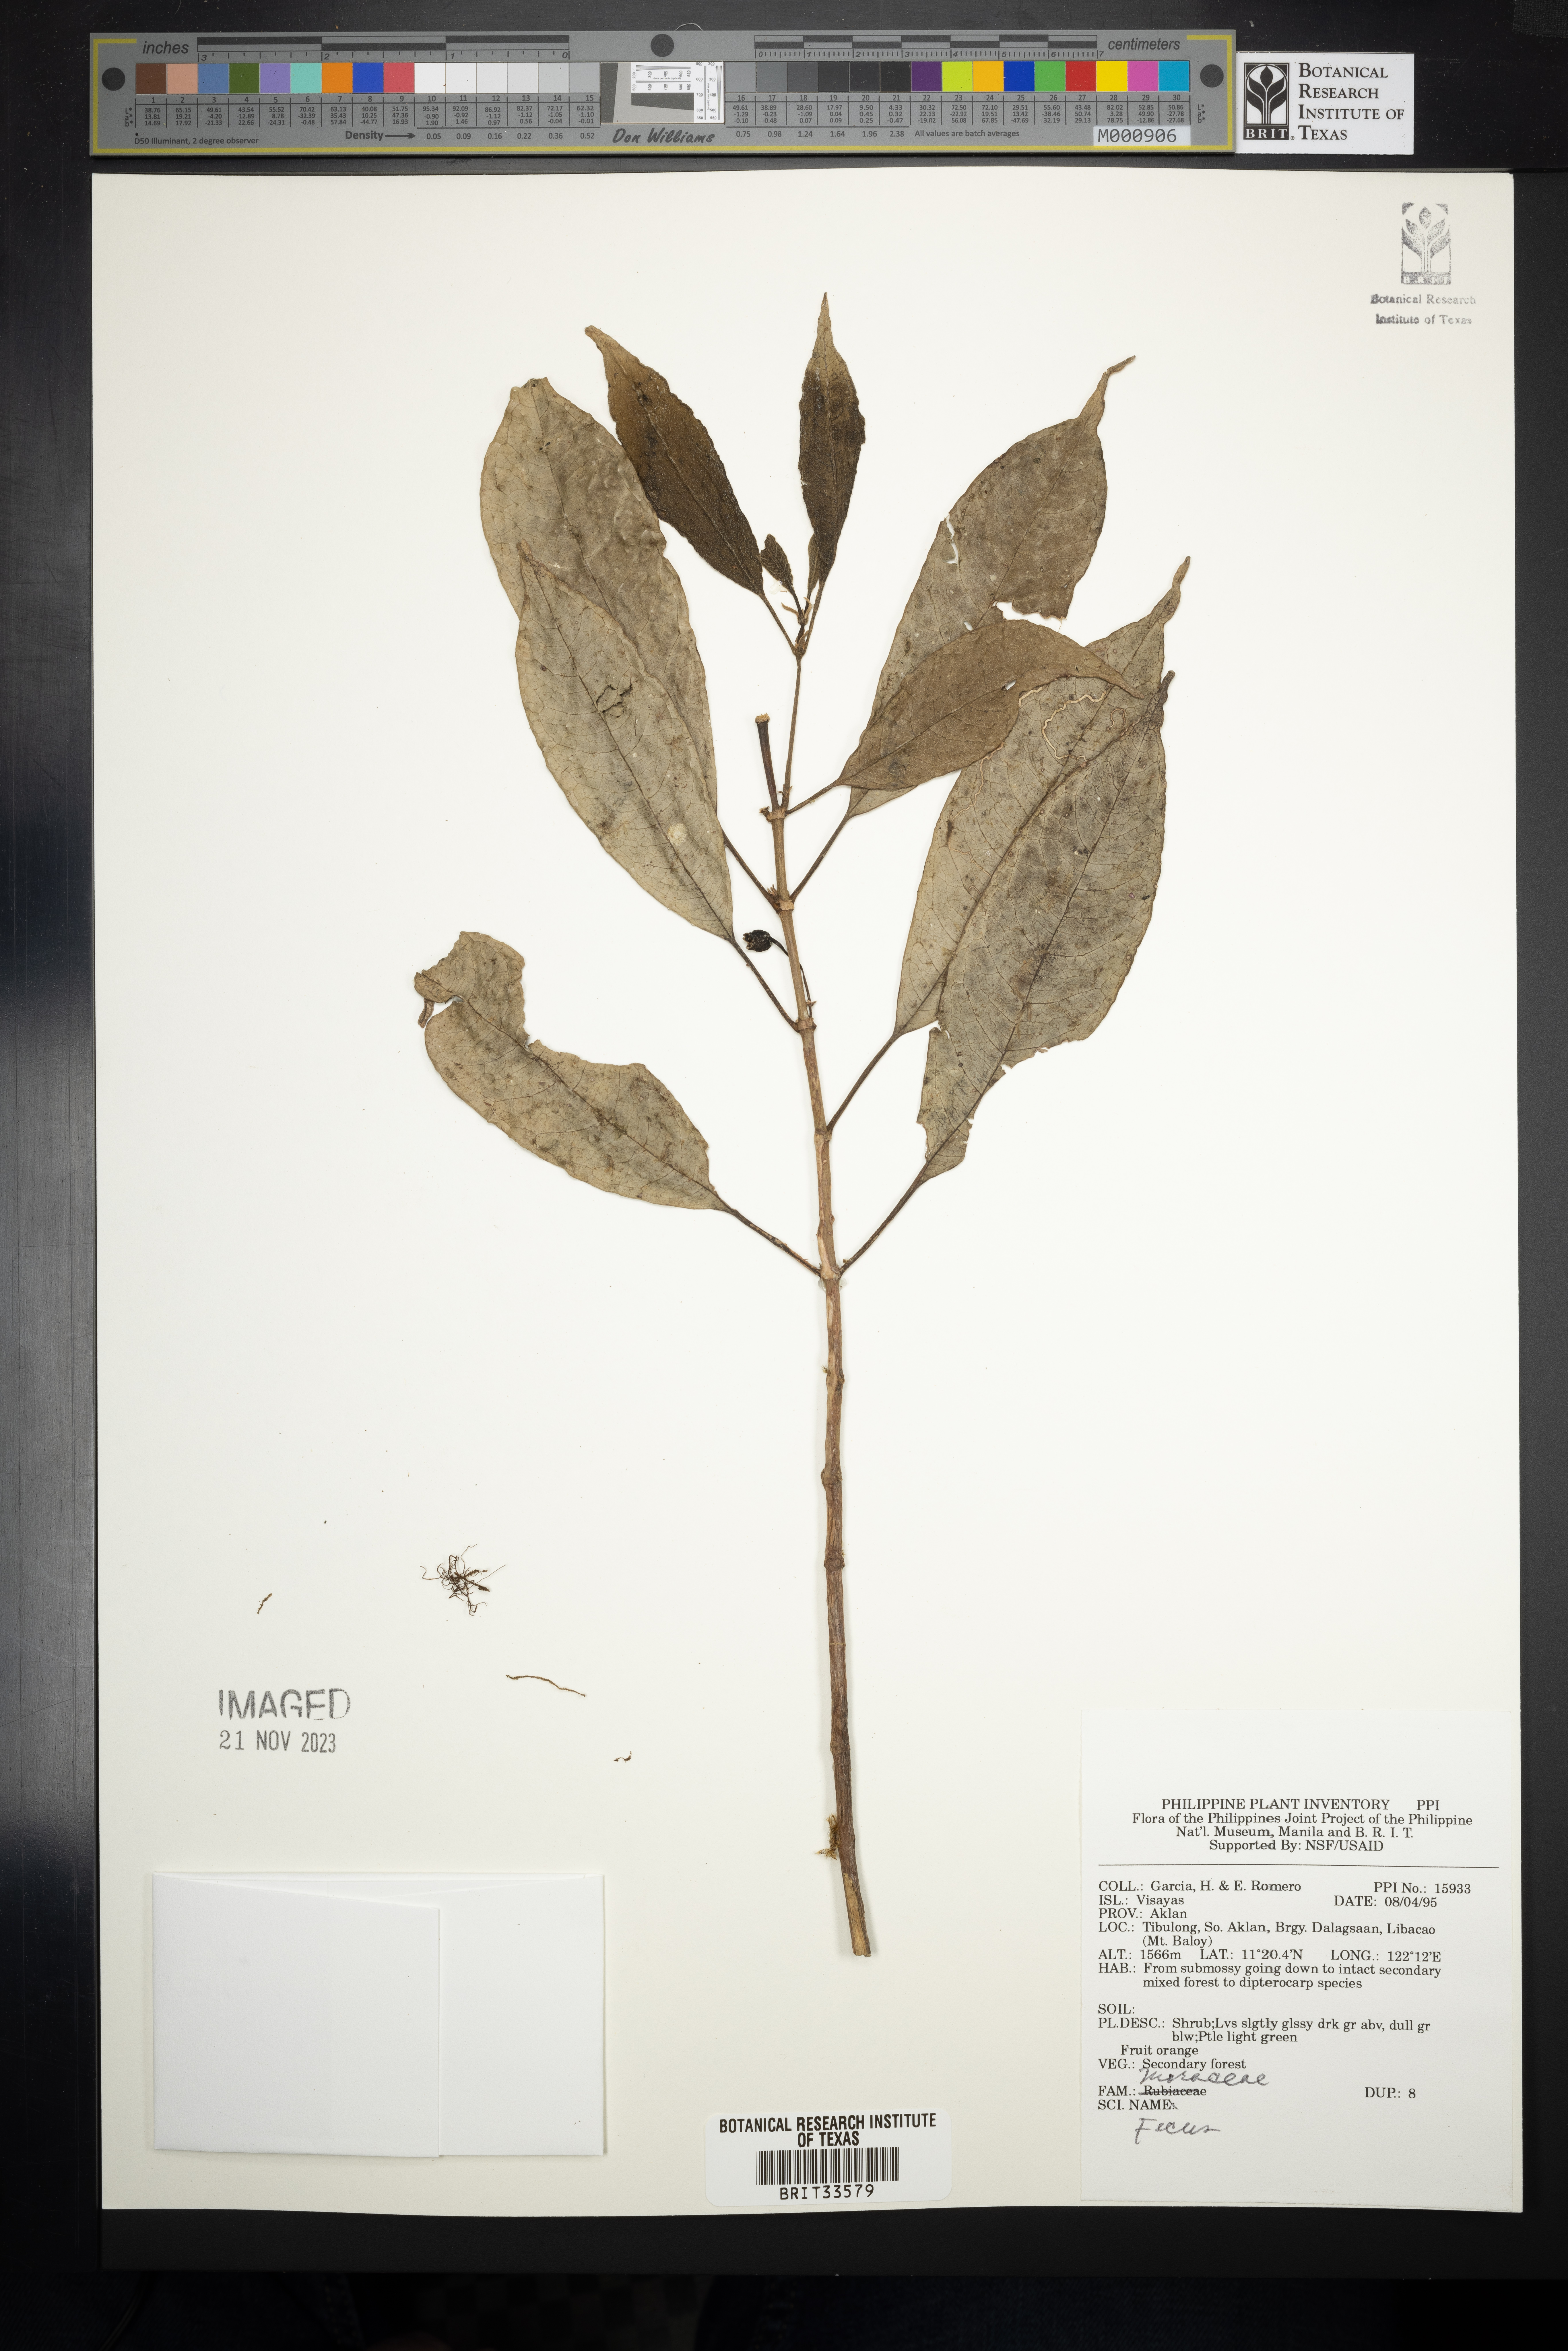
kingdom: Plantae
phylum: Tracheophyta
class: Magnoliopsida
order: Rosales
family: Moraceae
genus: Ficus
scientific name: Ficus
